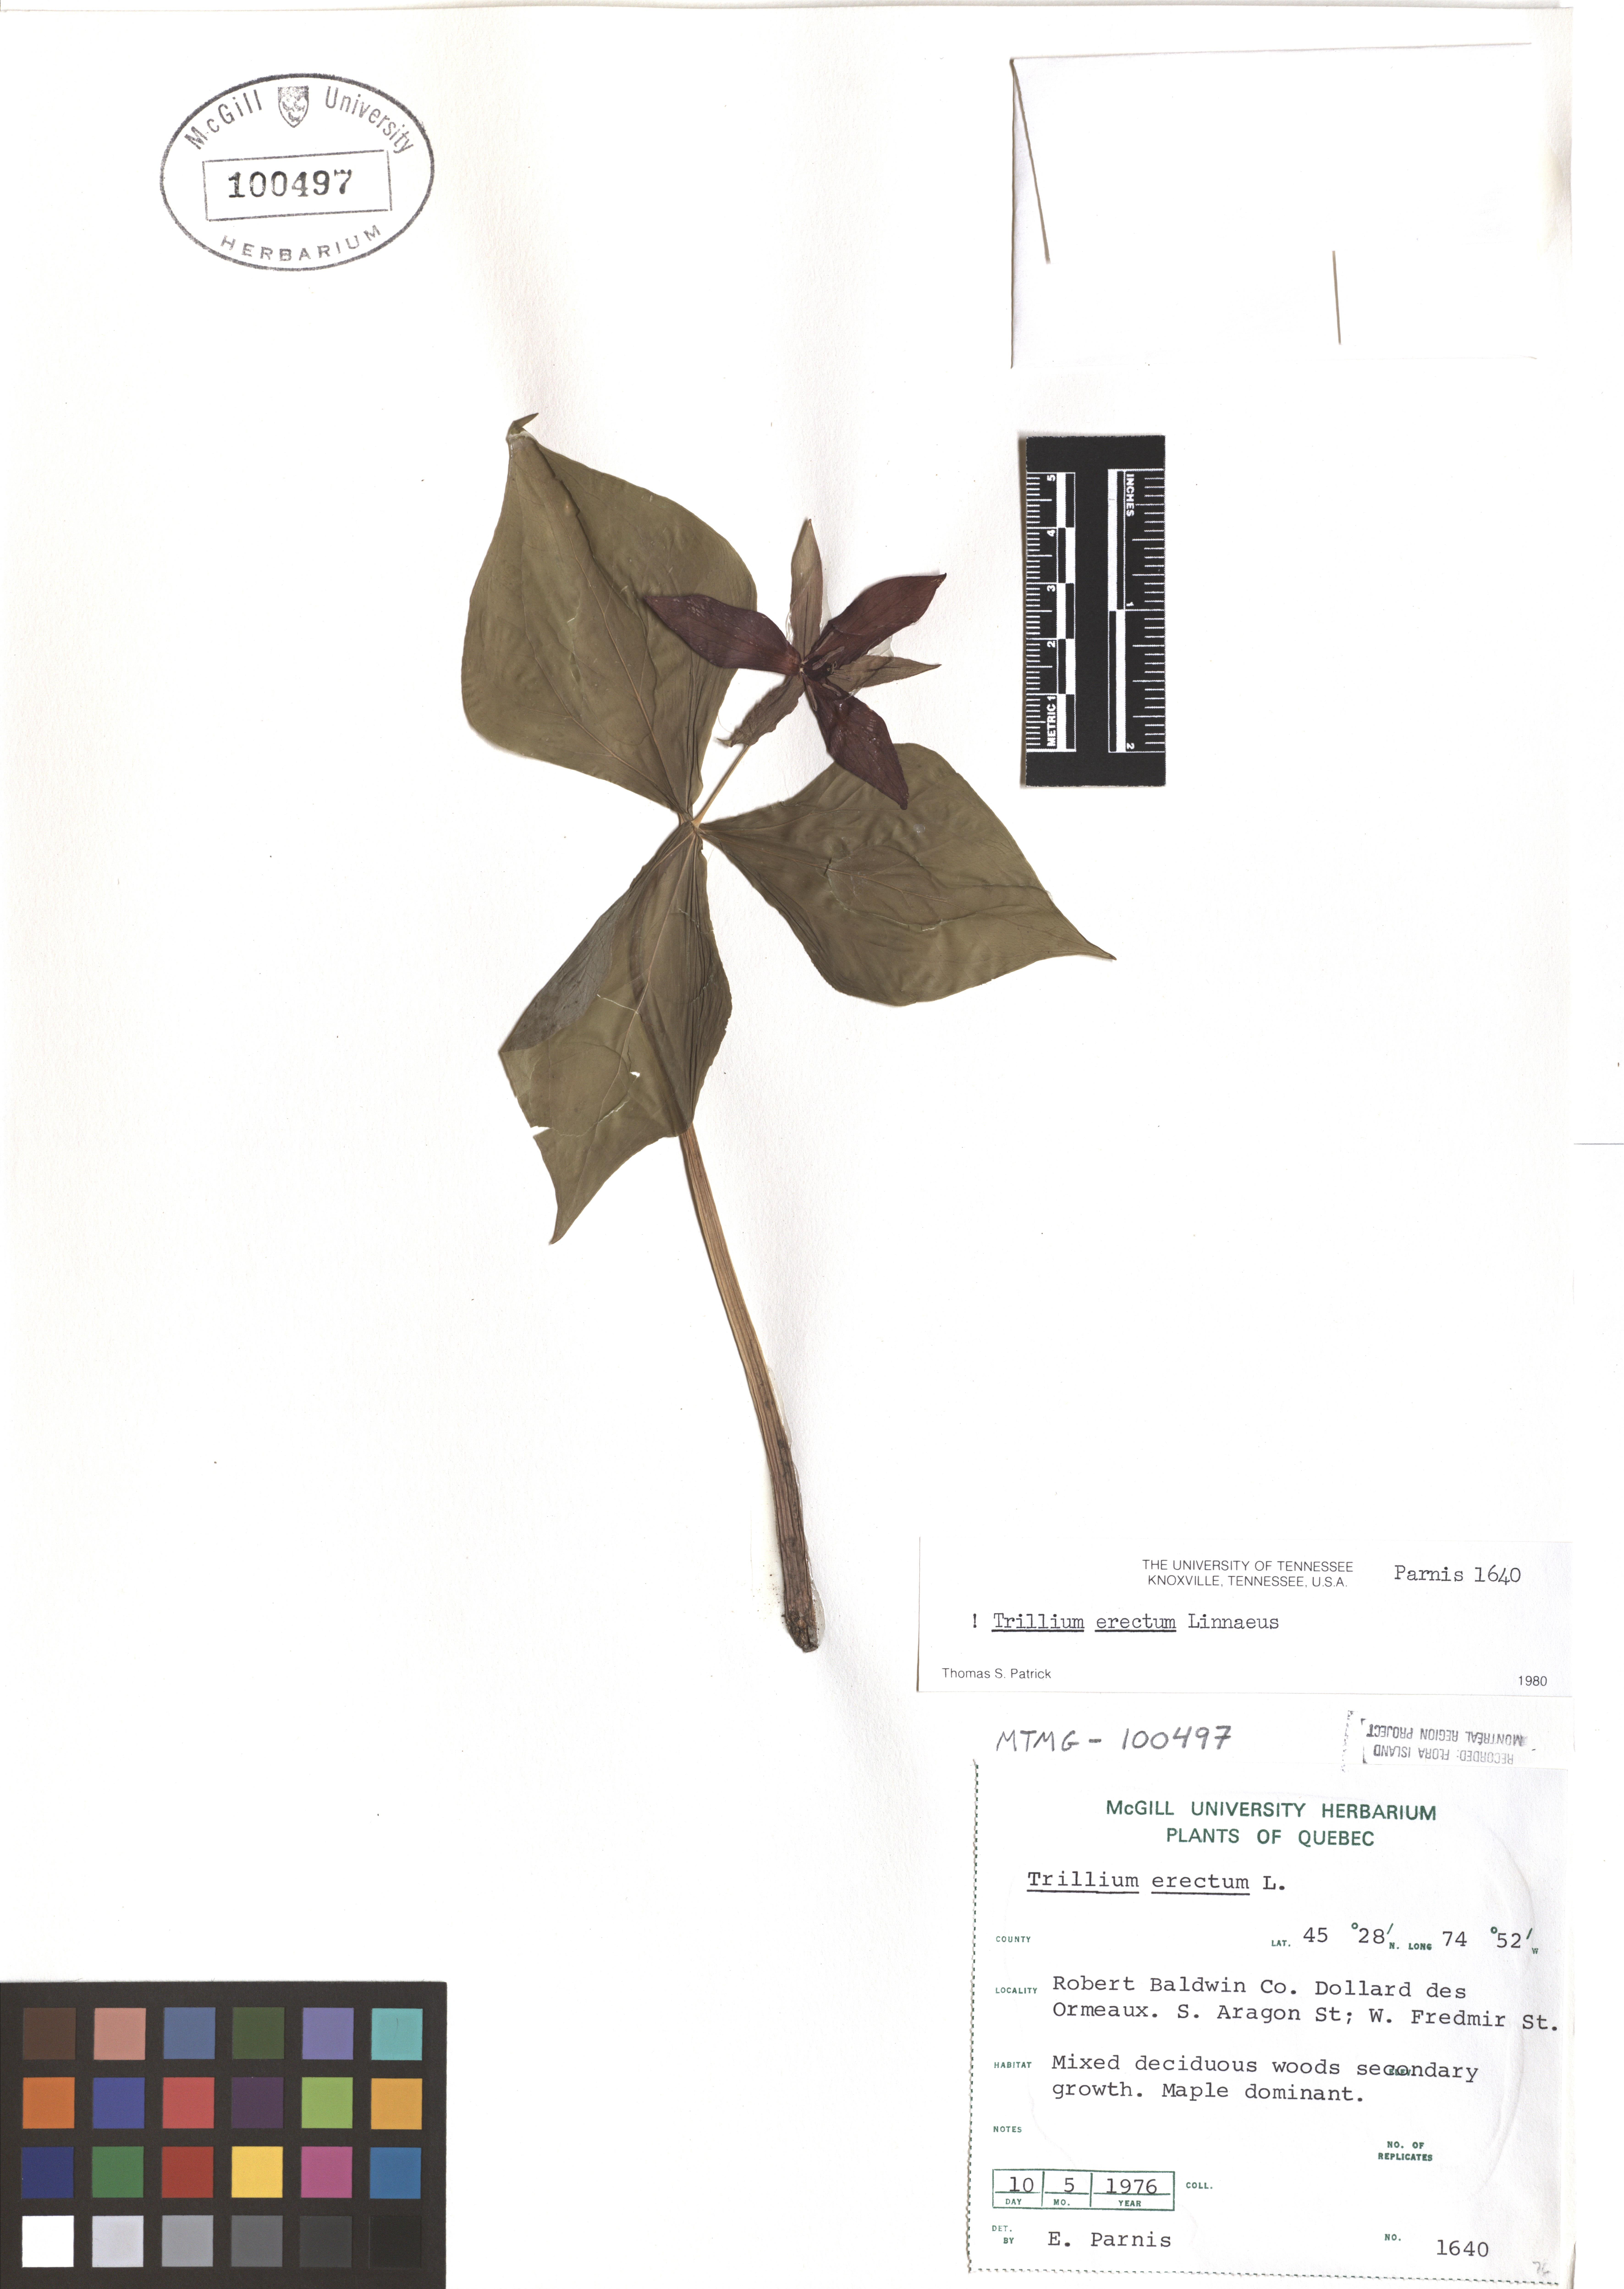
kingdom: Plantae
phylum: Tracheophyta
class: Liliopsida
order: Liliales
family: Melanthiaceae
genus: Trillium
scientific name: Trillium erectum
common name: Purple trillium
